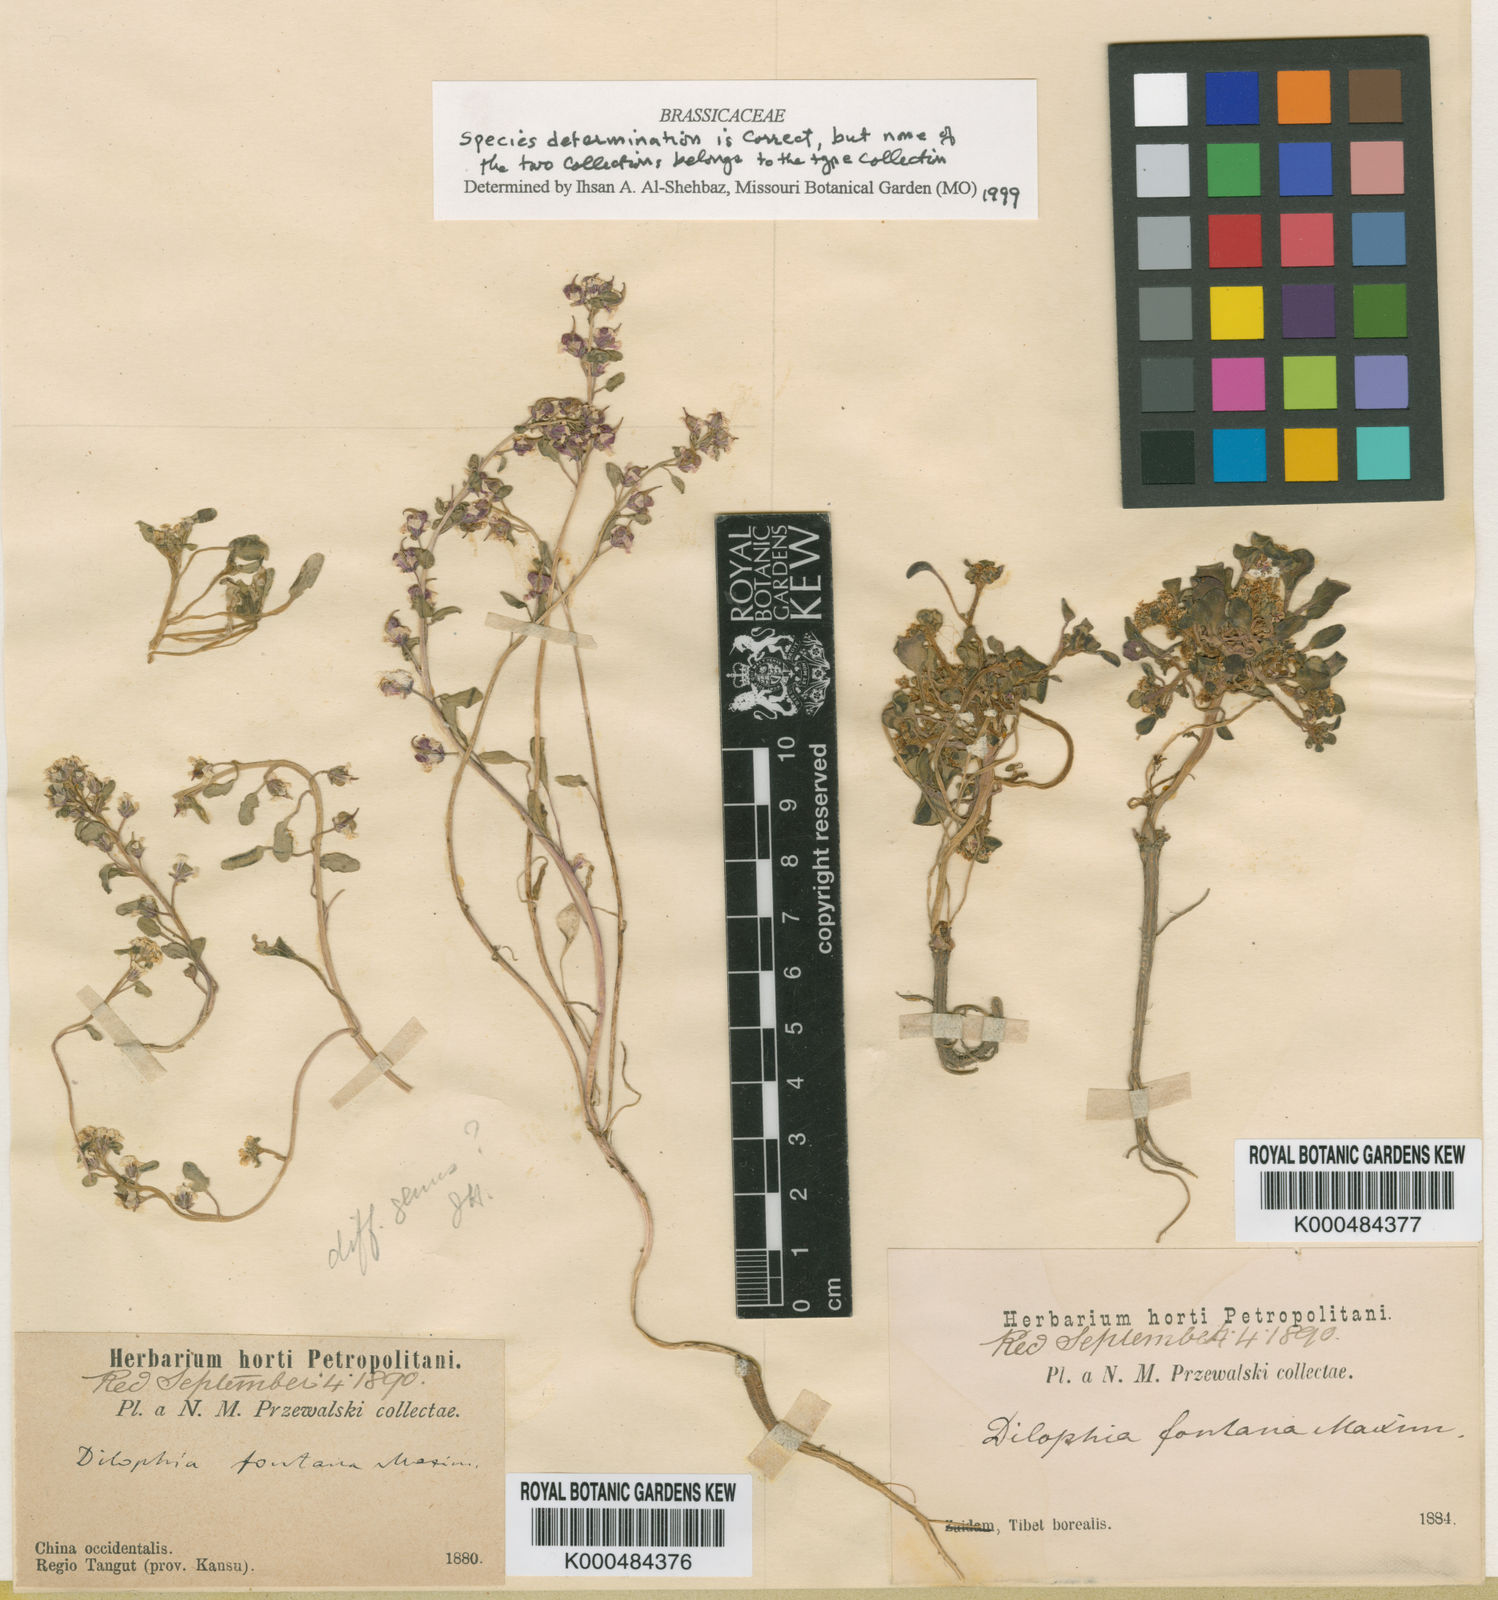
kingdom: Plantae
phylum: Tracheophyta
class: Magnoliopsida
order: Brassicales
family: Brassicaceae
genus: Eutrema
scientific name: Eutrema fontanum
